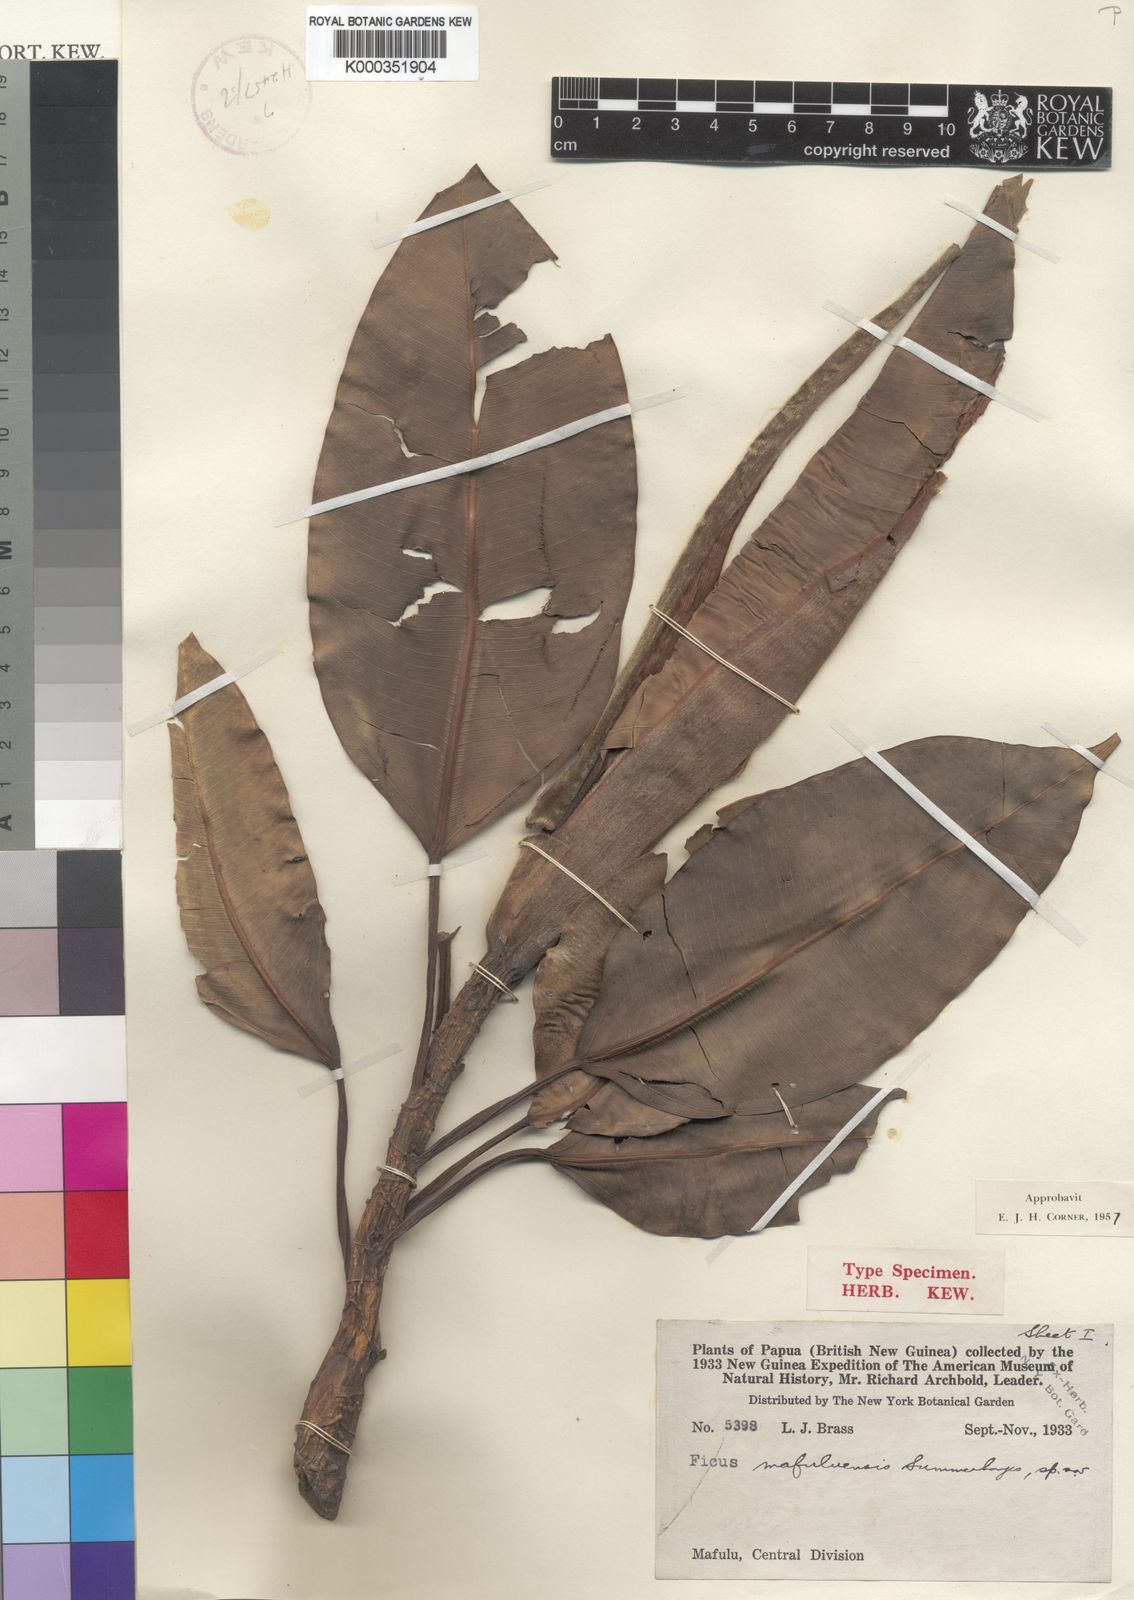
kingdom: Plantae
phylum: Tracheophyta
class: Magnoliopsida
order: Rosales
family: Moraceae
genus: Ficus
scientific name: Ficus hesperidiiformis
